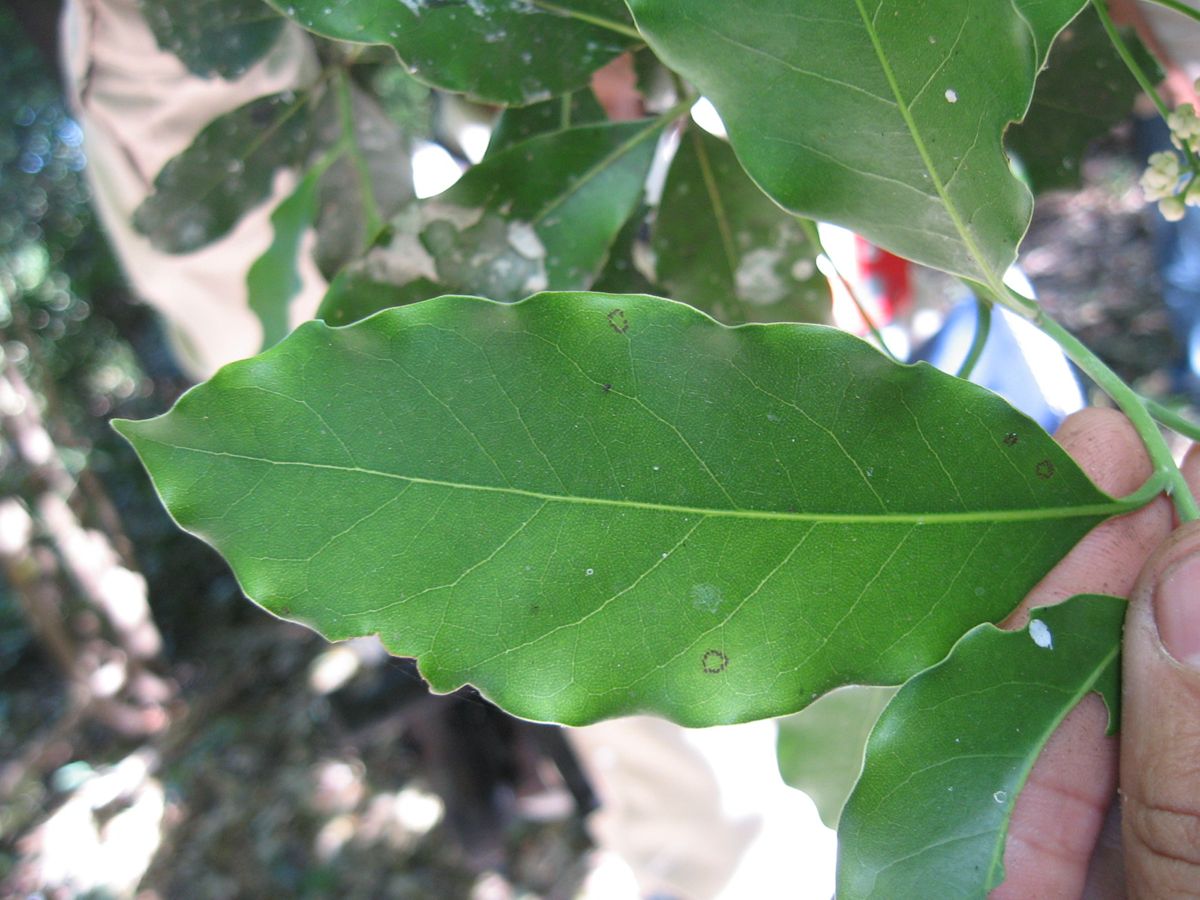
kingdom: Plantae
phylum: Tracheophyta
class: Magnoliopsida
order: Laurales
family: Lauraceae
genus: Mespilodaphne
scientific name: Mespilodaphne veraguensis
